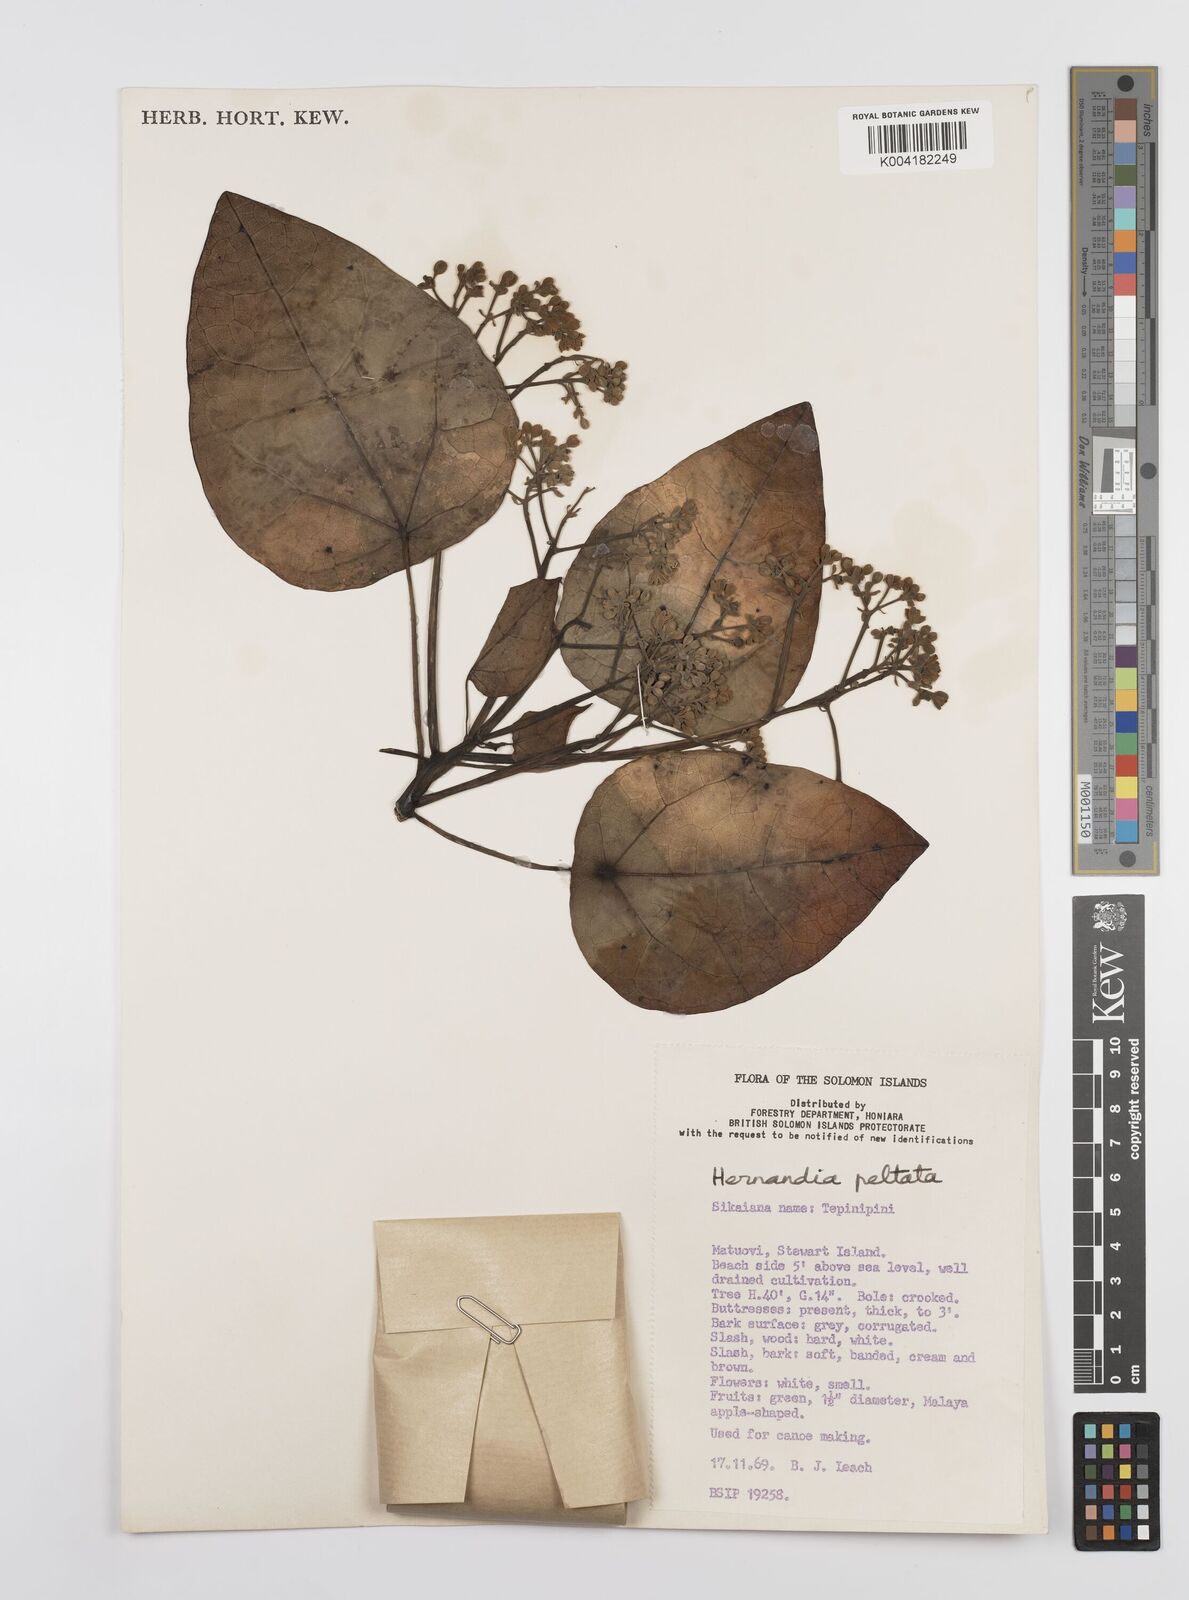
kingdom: Plantae
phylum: Tracheophyta
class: Magnoliopsida
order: Laurales
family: Hernandiaceae
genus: Hernandia
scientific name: Hernandia nymphaeifolia
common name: Sea hearse
